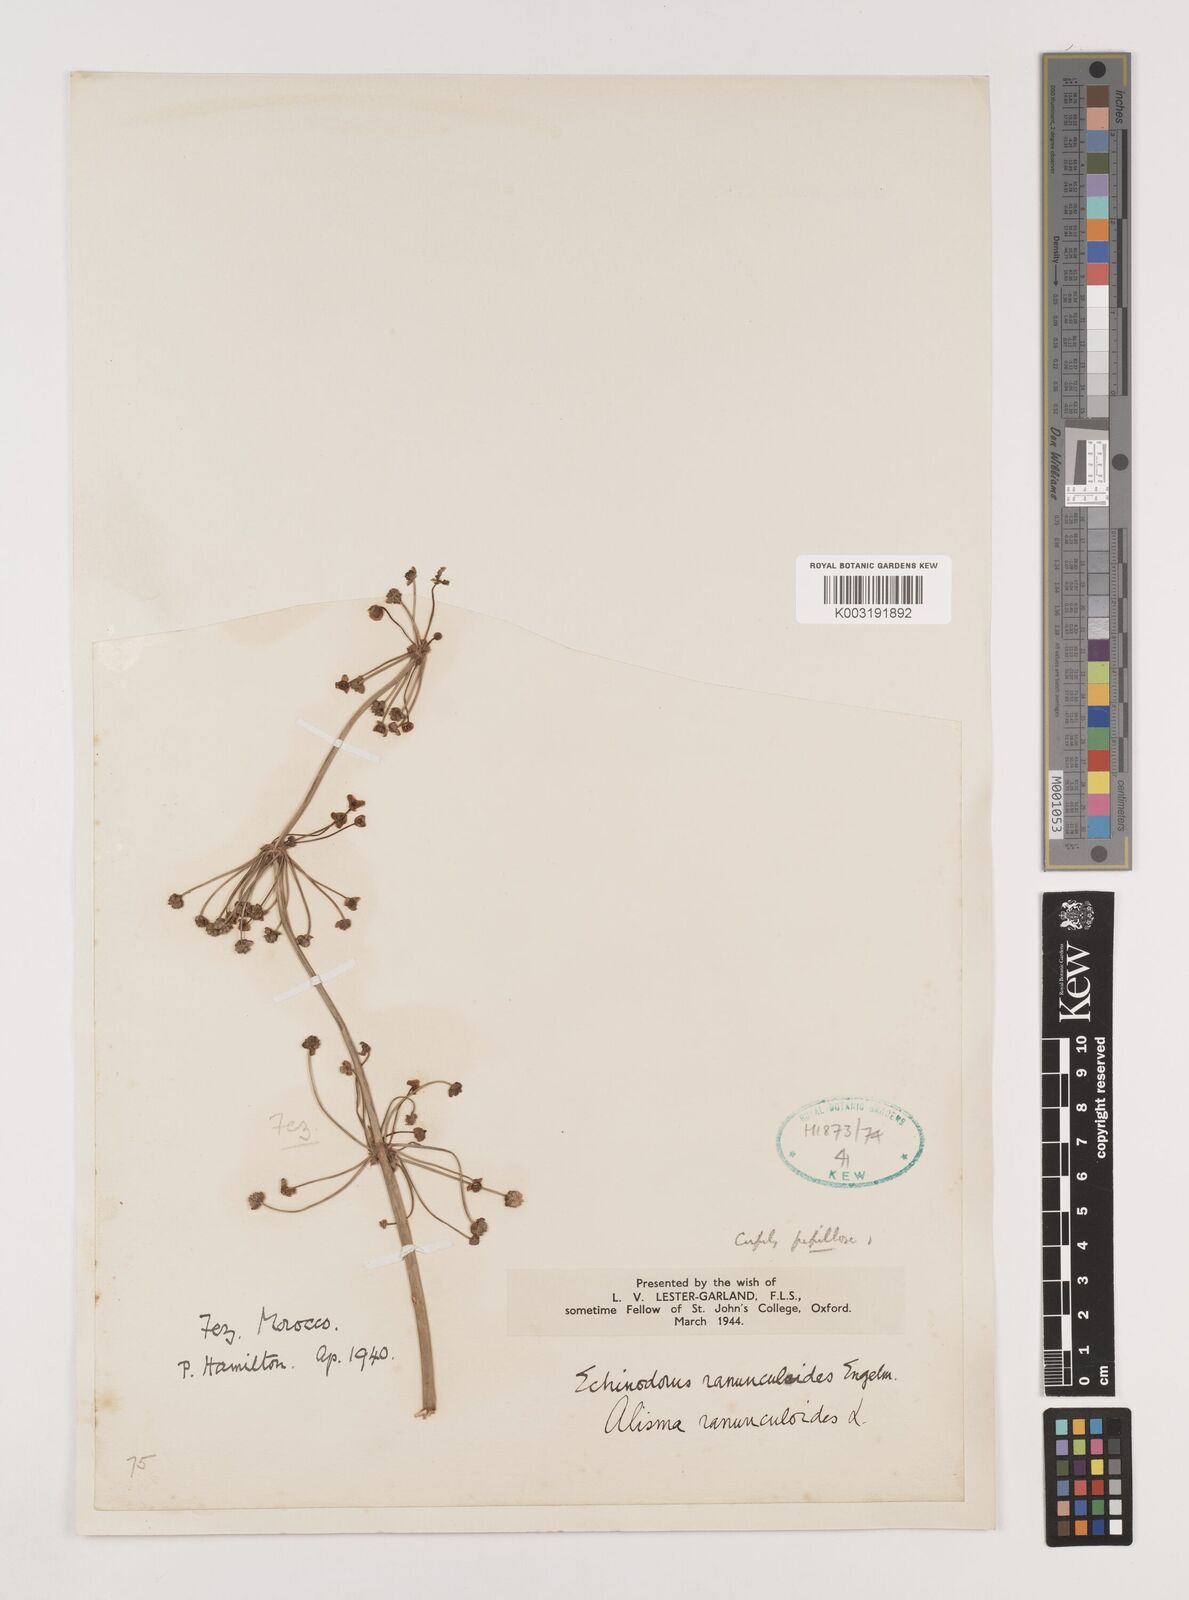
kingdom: Plantae
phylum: Tracheophyta
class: Liliopsida
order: Alismatales
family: Alismataceae
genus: Baldellia
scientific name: Baldellia ranunculoides
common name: Lesser water-plantain
